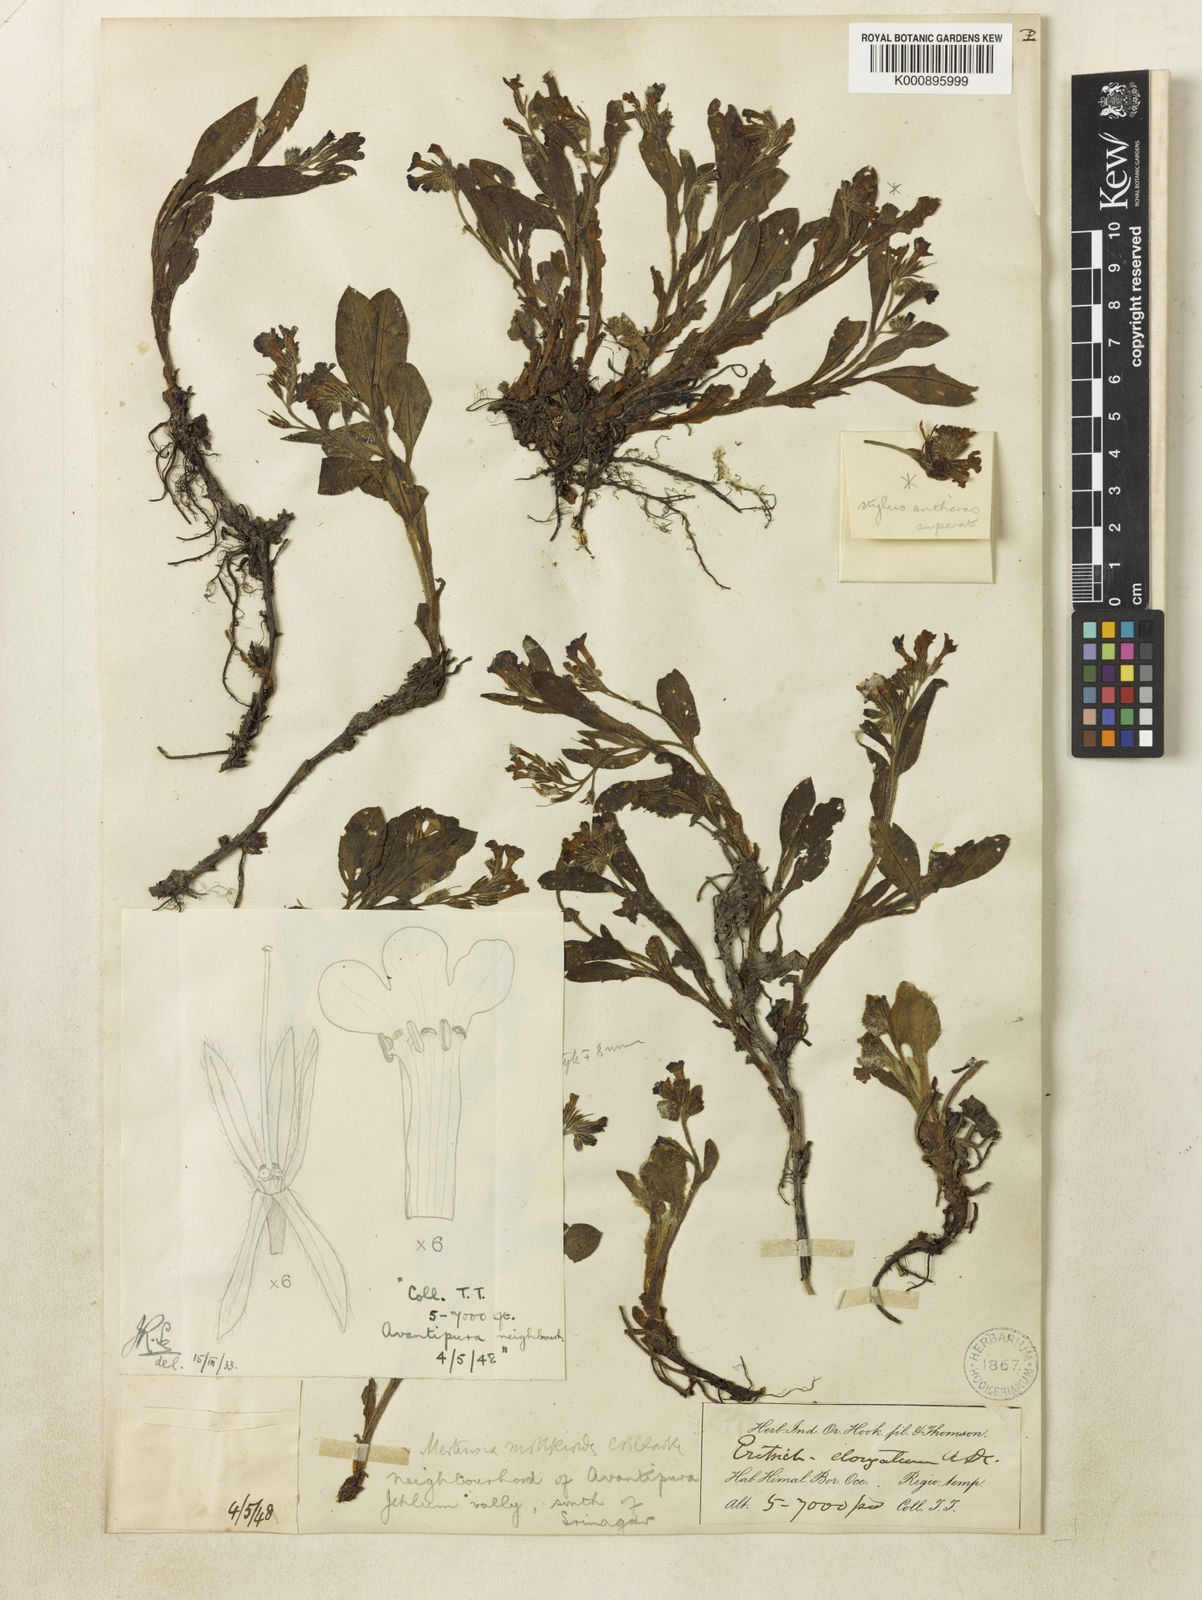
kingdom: Plantae
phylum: Tracheophyta
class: Magnoliopsida
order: Boraginales
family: Boraginaceae
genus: Decalepidanthus
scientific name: Decalepidanthus moltkioides
